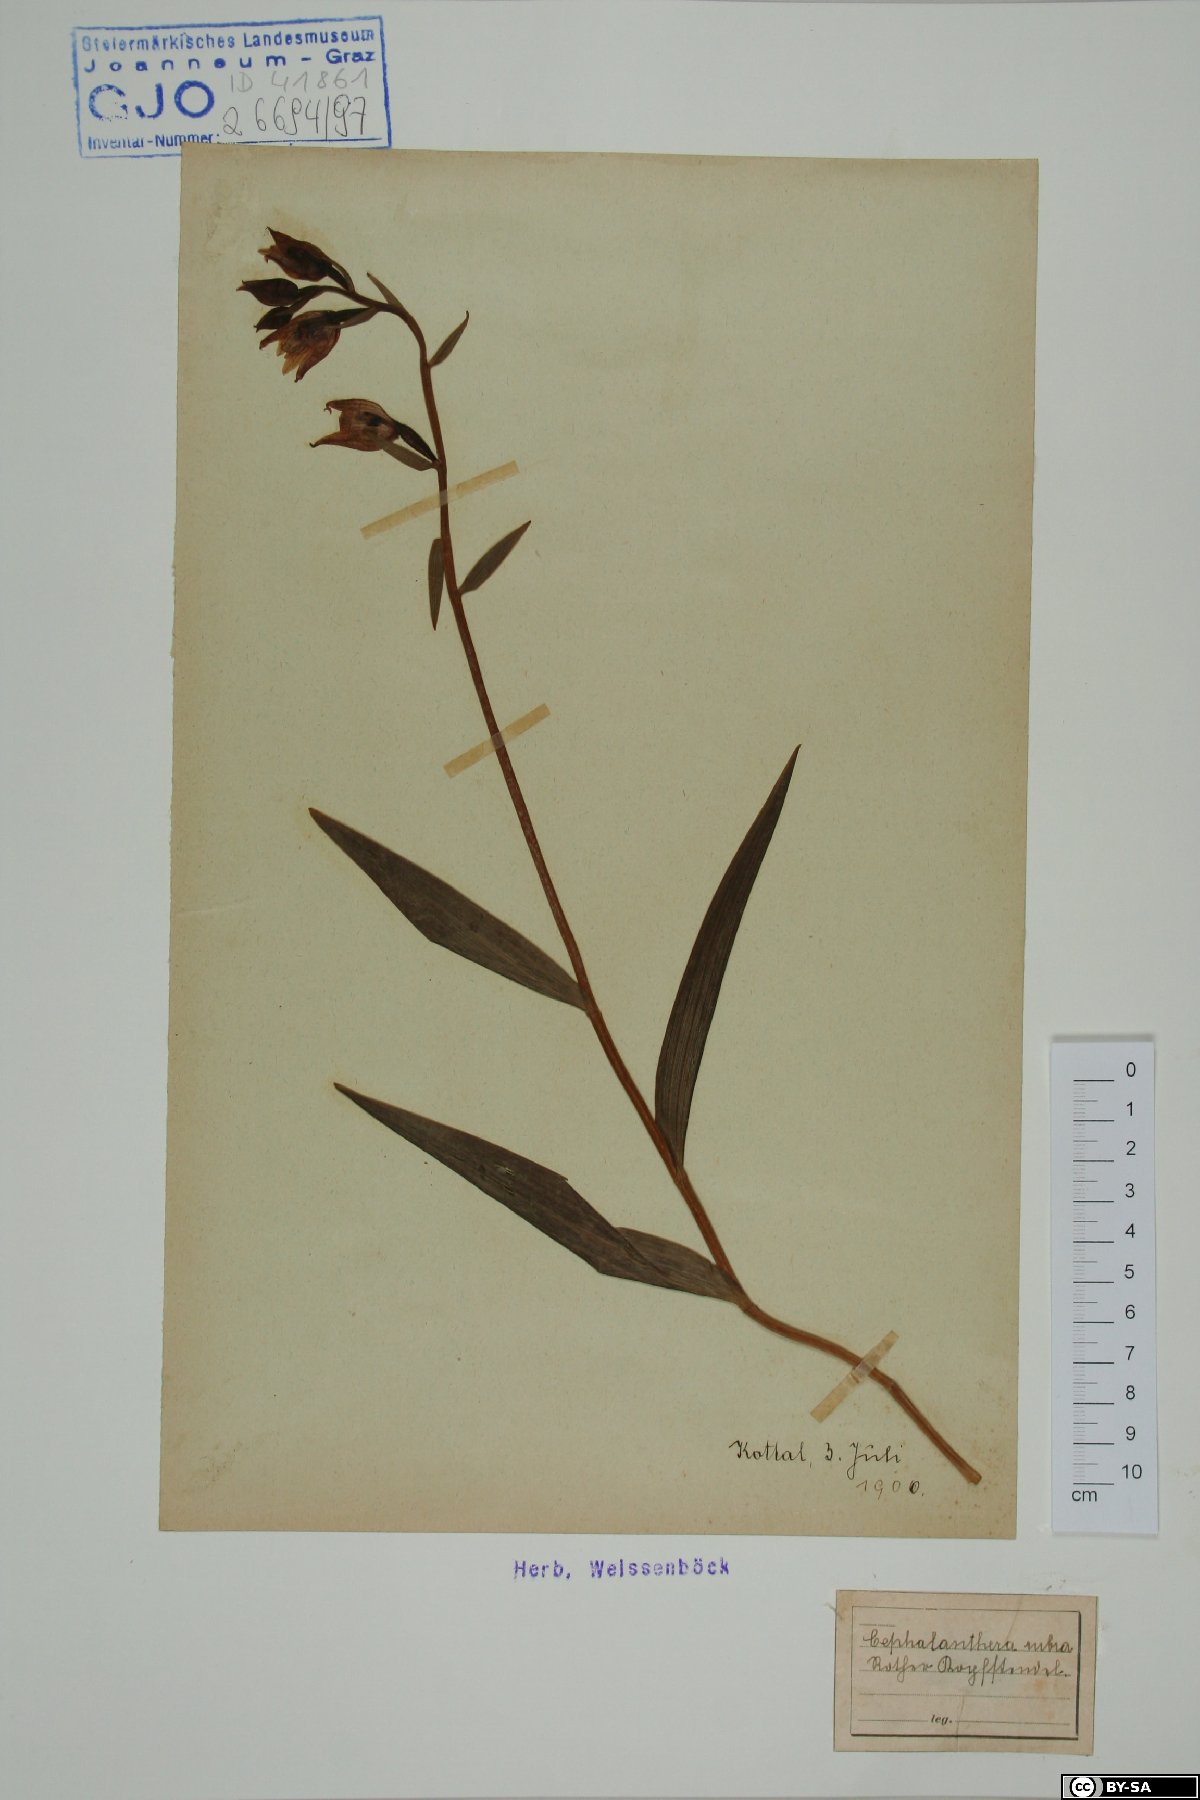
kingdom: Plantae
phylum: Tracheophyta
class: Liliopsida
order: Asparagales
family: Orchidaceae
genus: Cephalanthera
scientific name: Cephalanthera rubra
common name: Red helleborine
